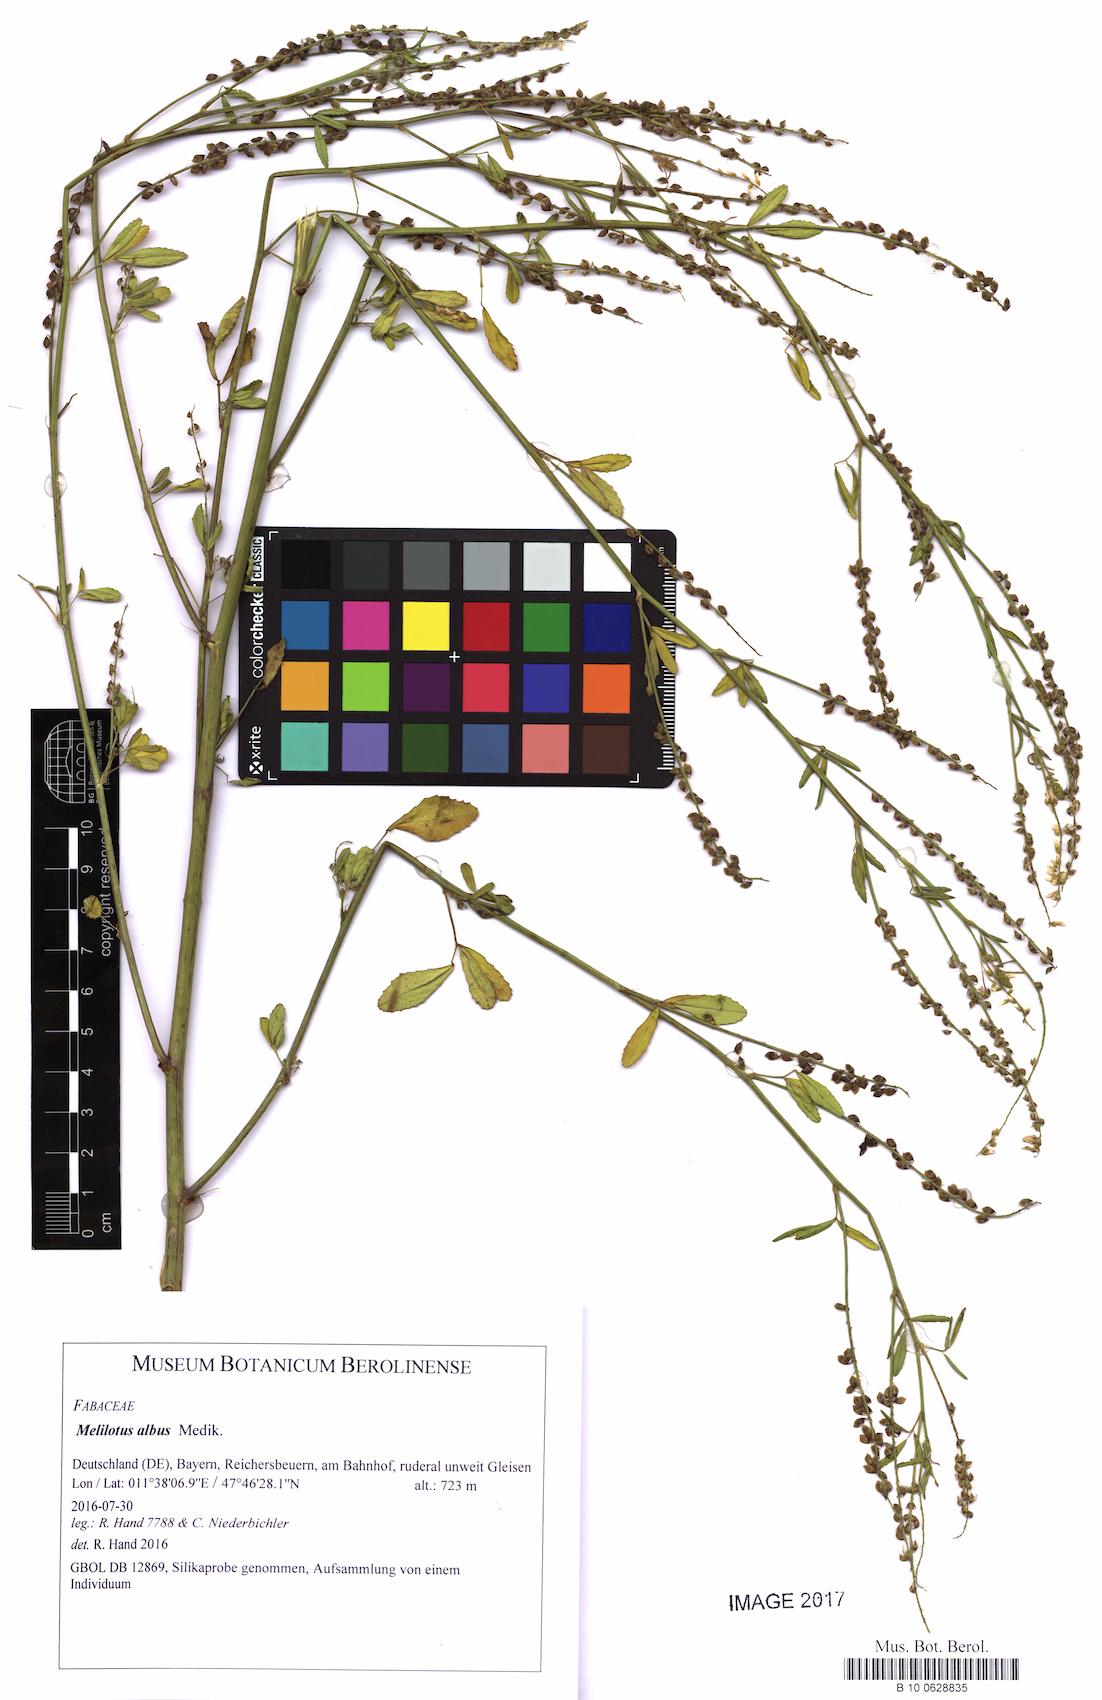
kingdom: Plantae
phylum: Tracheophyta
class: Magnoliopsida
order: Fabales
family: Fabaceae
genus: Melilotus
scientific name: Melilotus albus
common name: White melilot
